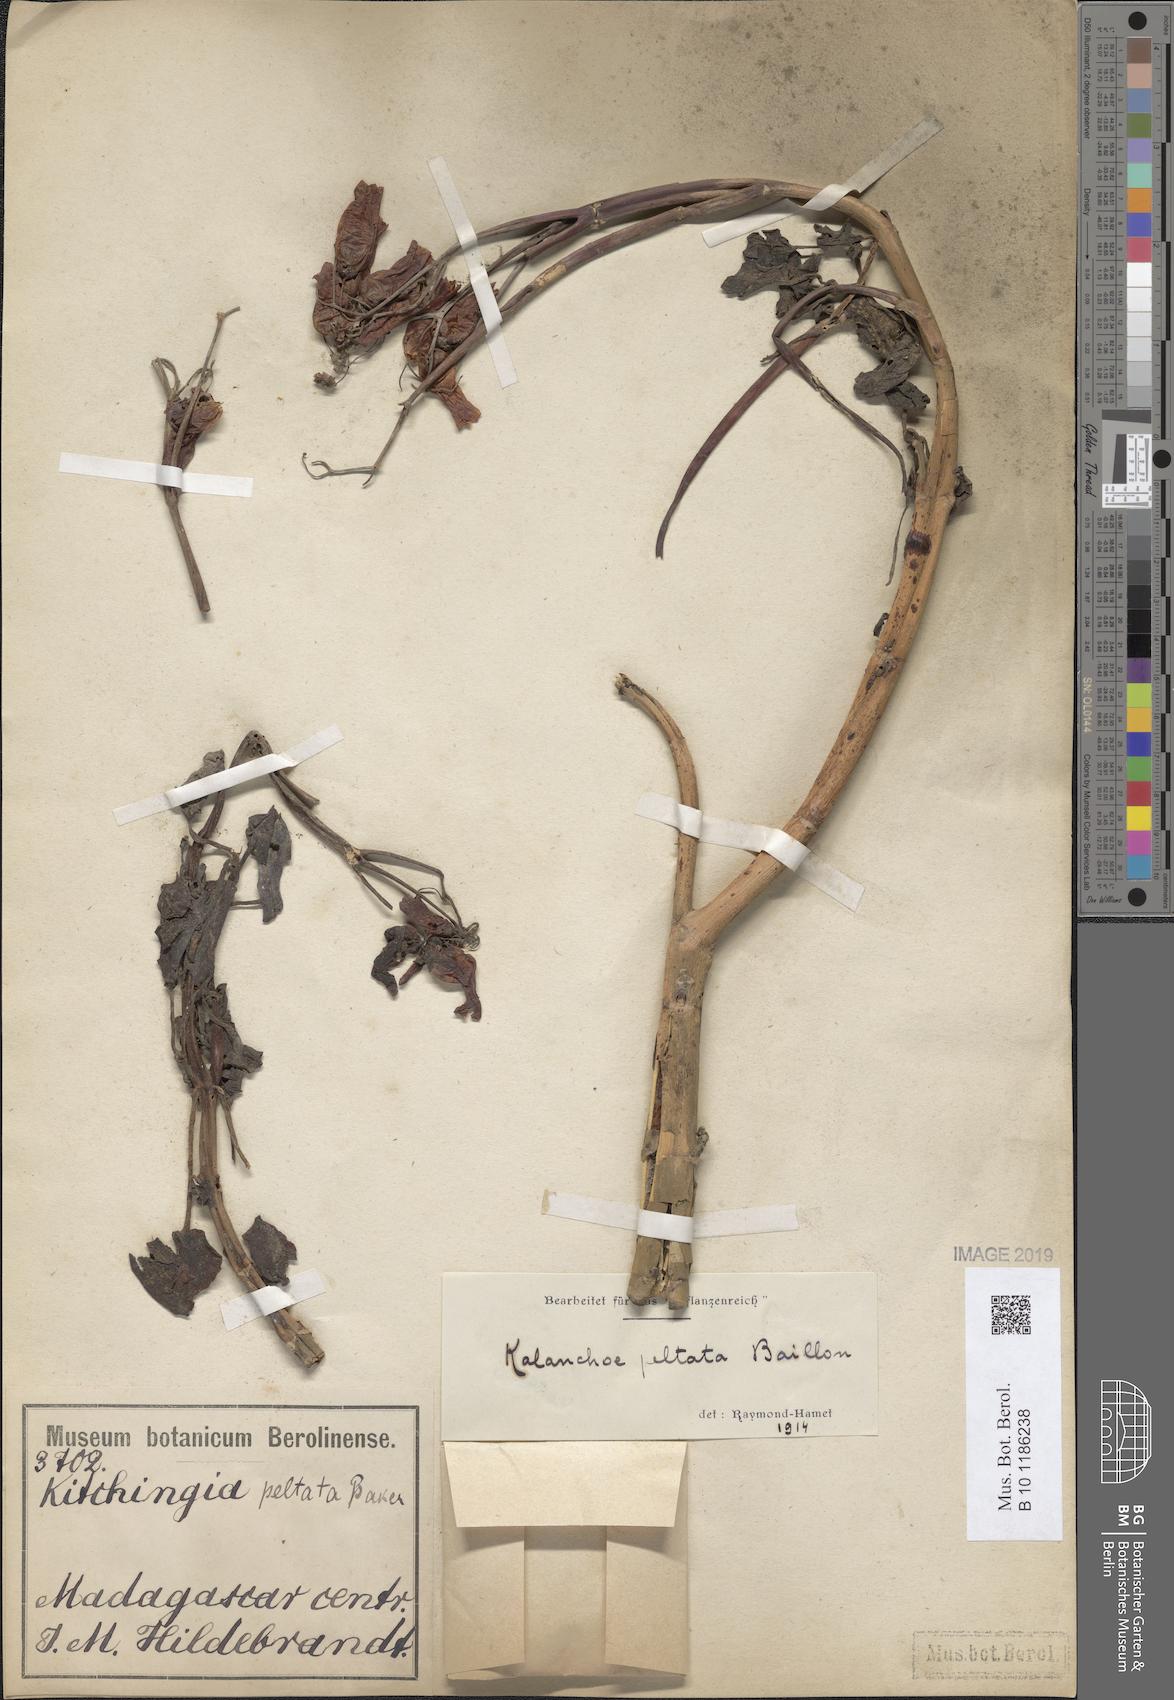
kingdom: Plantae
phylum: Tracheophyta
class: Magnoliopsida
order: Saxifragales
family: Crassulaceae
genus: Kalanchoe
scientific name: Kalanchoe peltata
